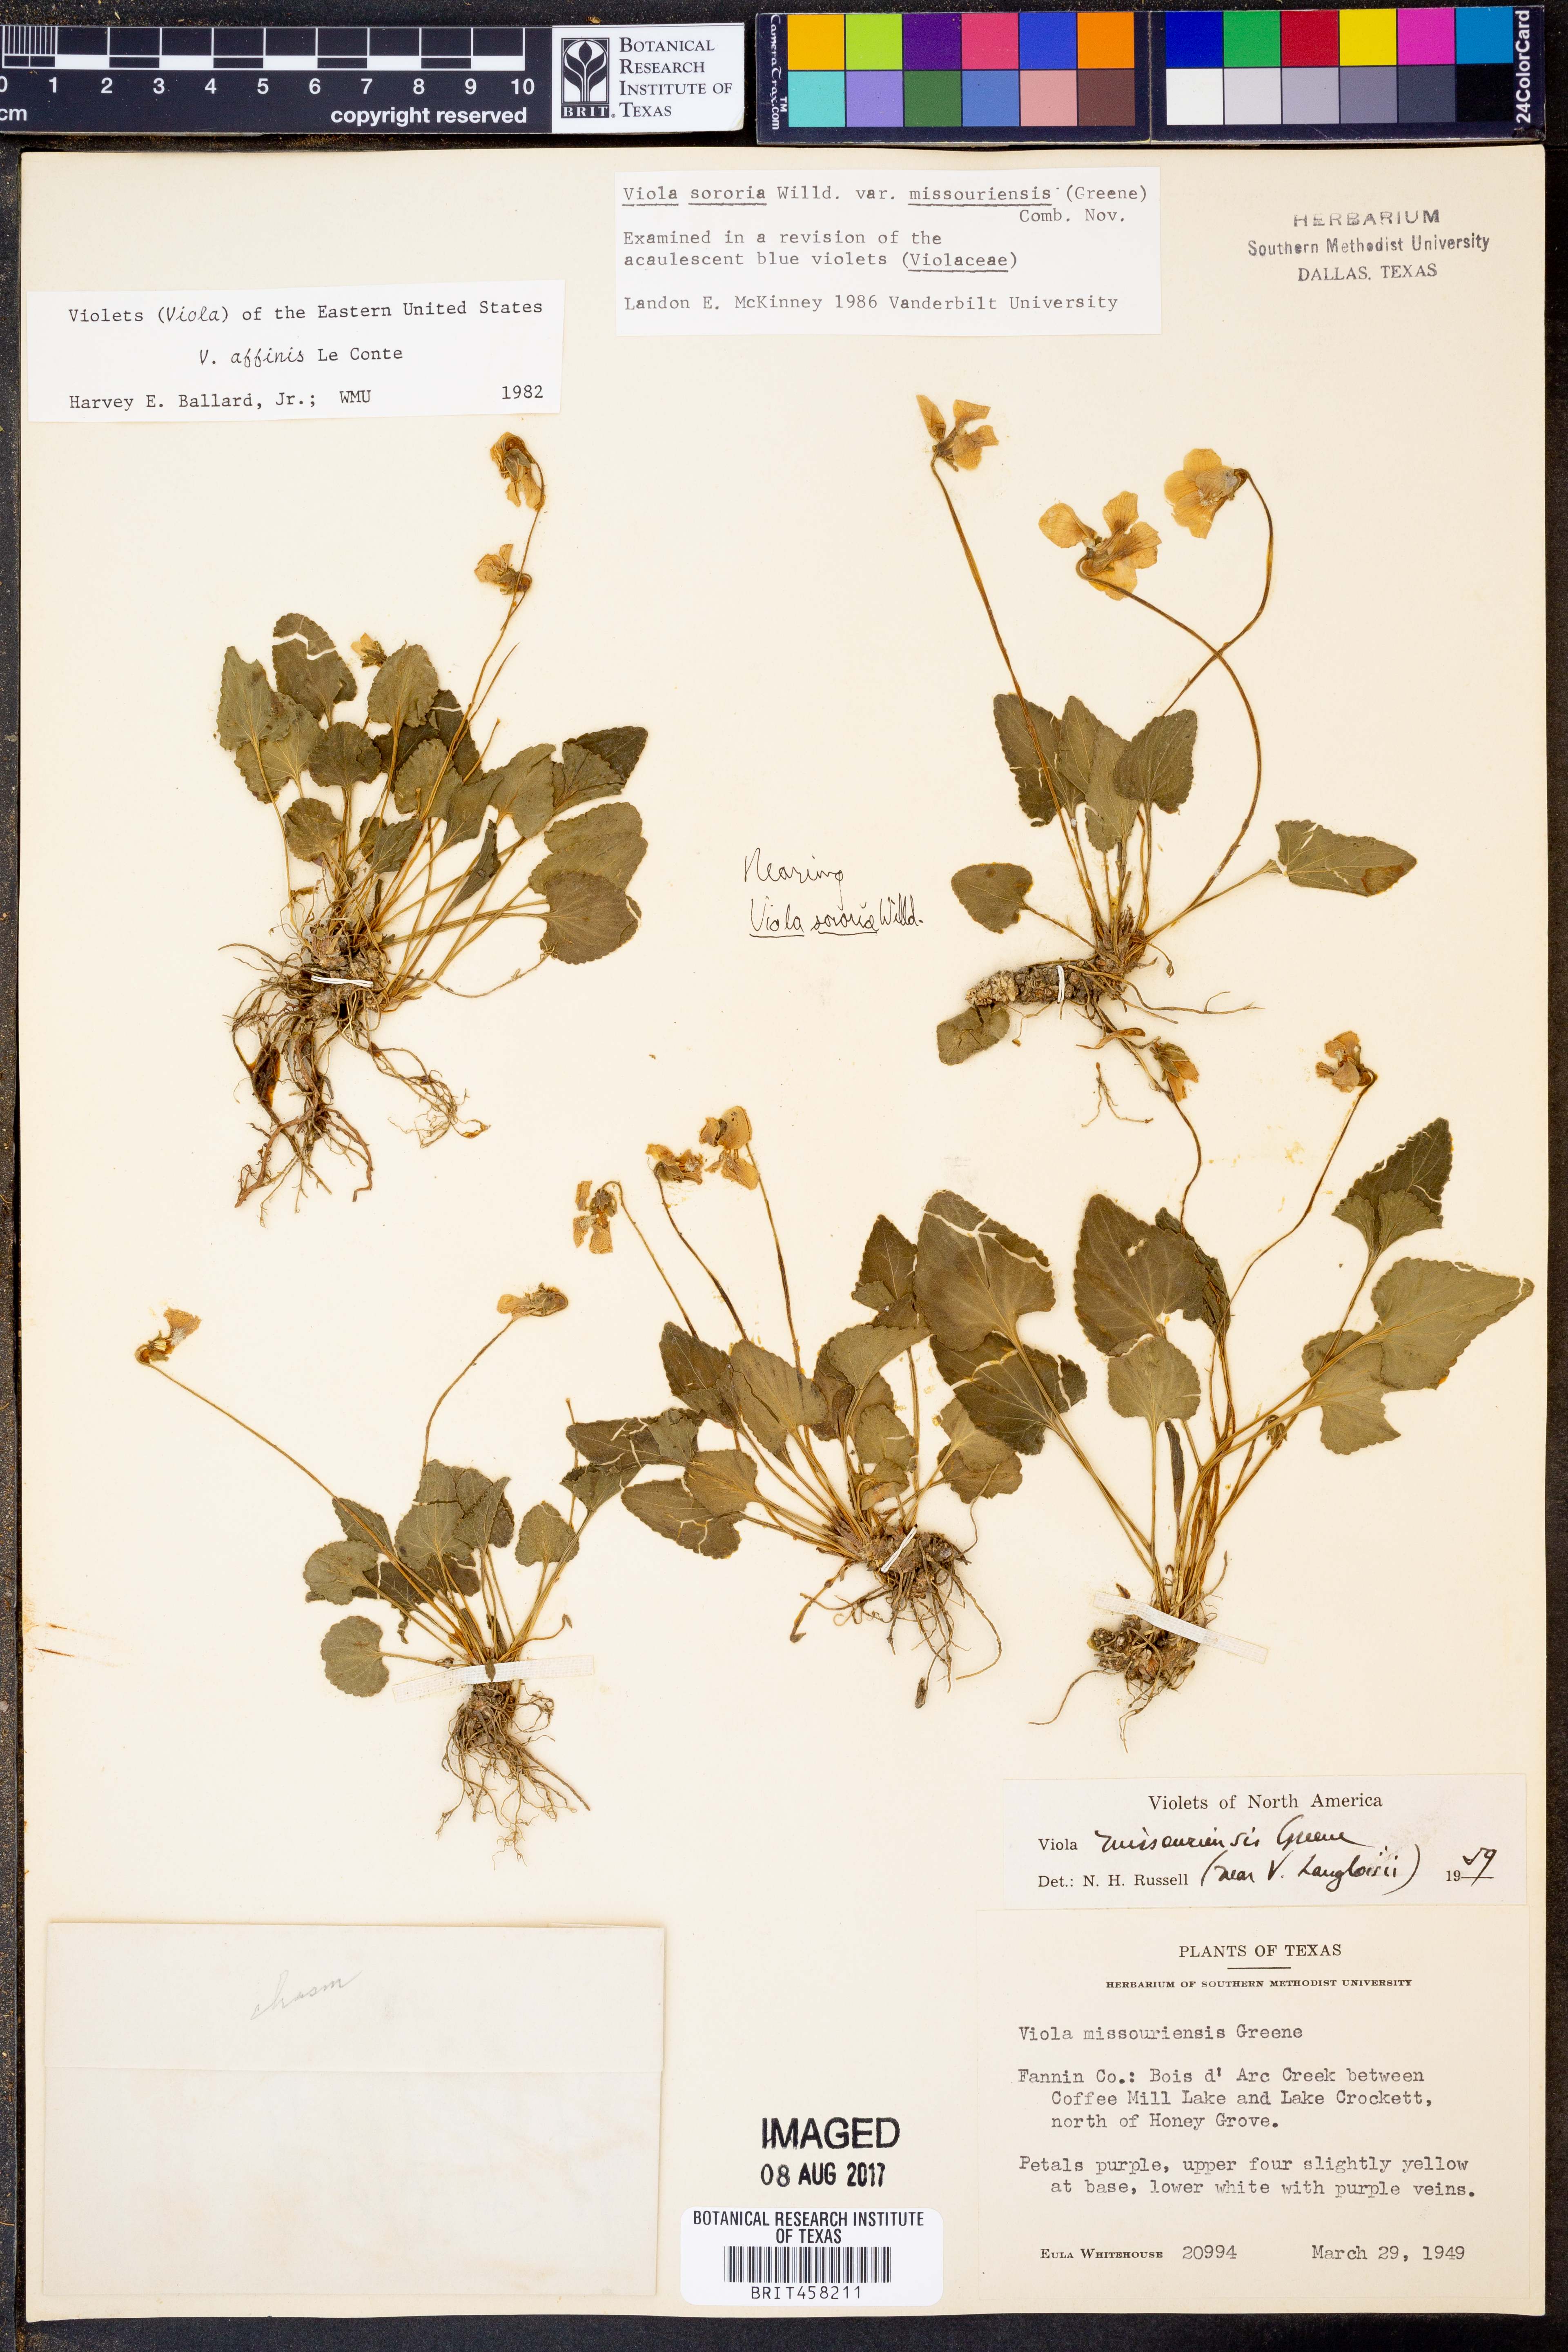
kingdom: Plantae
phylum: Tracheophyta
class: Magnoliopsida
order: Malpighiales
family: Violaceae
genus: Viola
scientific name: Viola missouriensis
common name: Missouri violet
